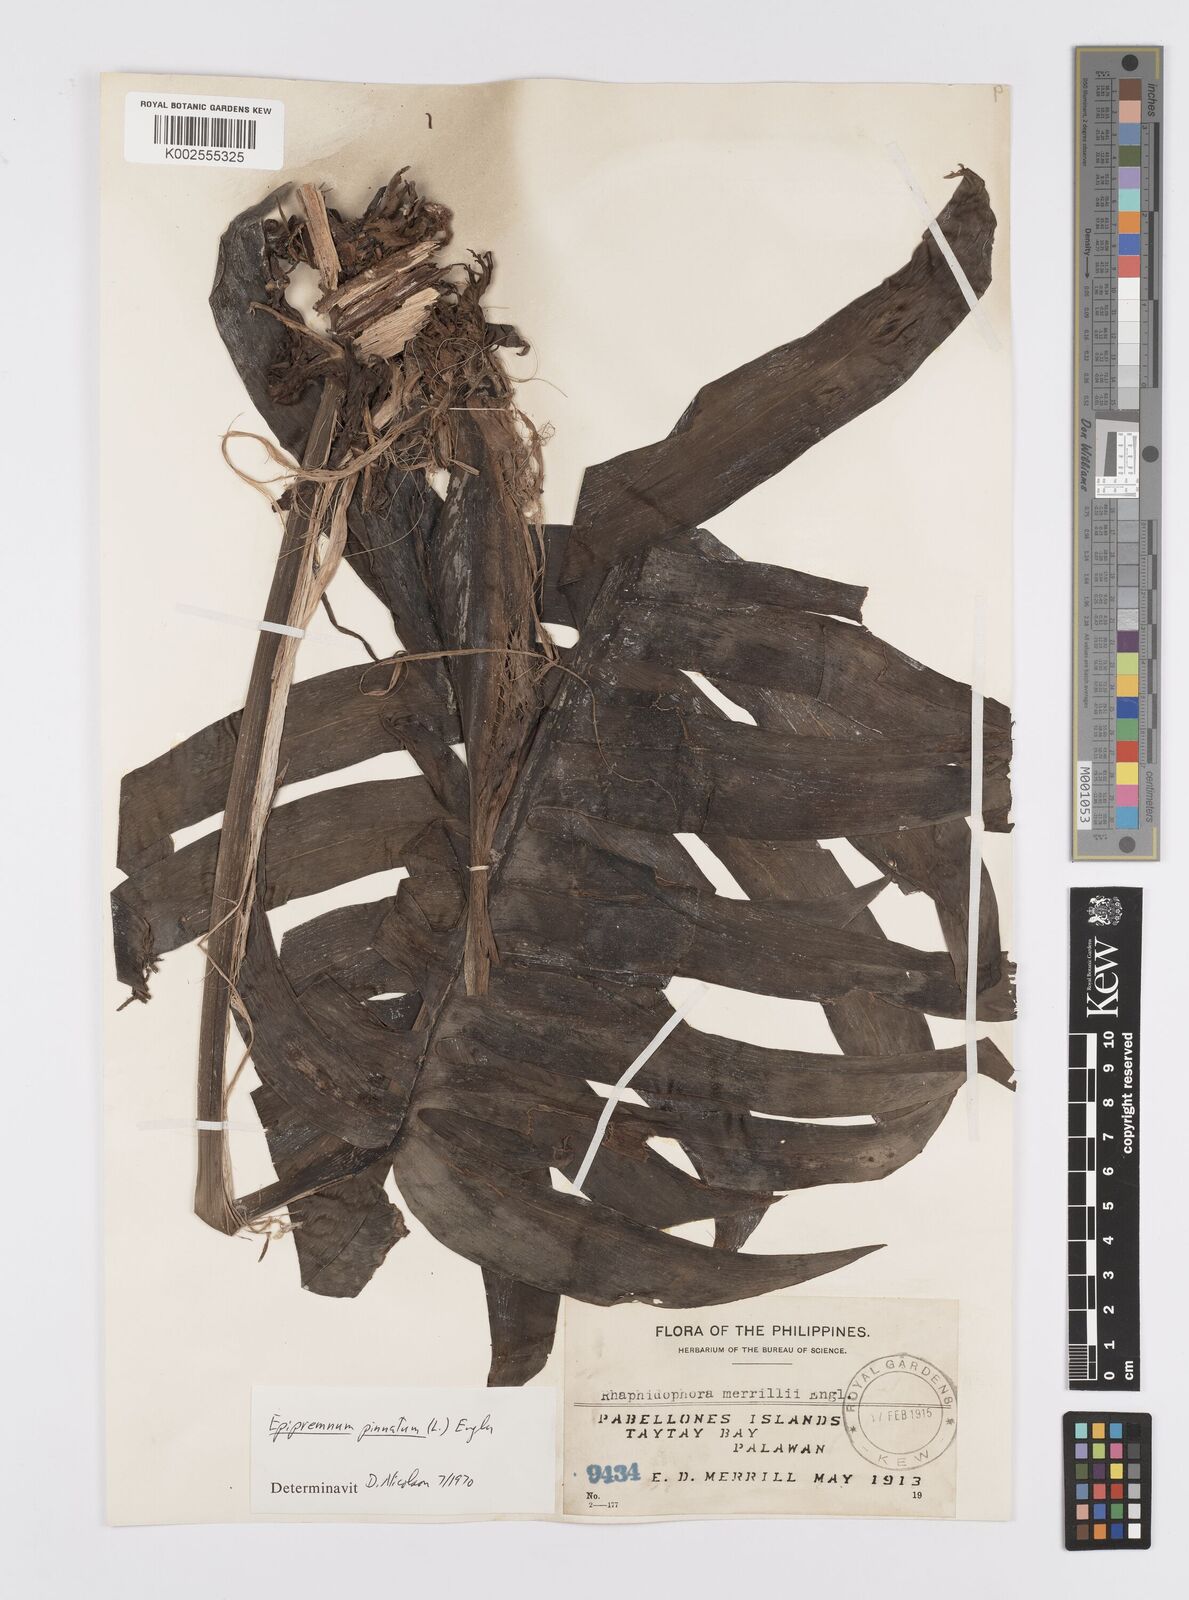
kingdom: Plantae
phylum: Tracheophyta
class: Liliopsida
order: Alismatales
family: Araceae
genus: Epipremnum
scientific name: Epipremnum pinnatum
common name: Centipede tongavine
